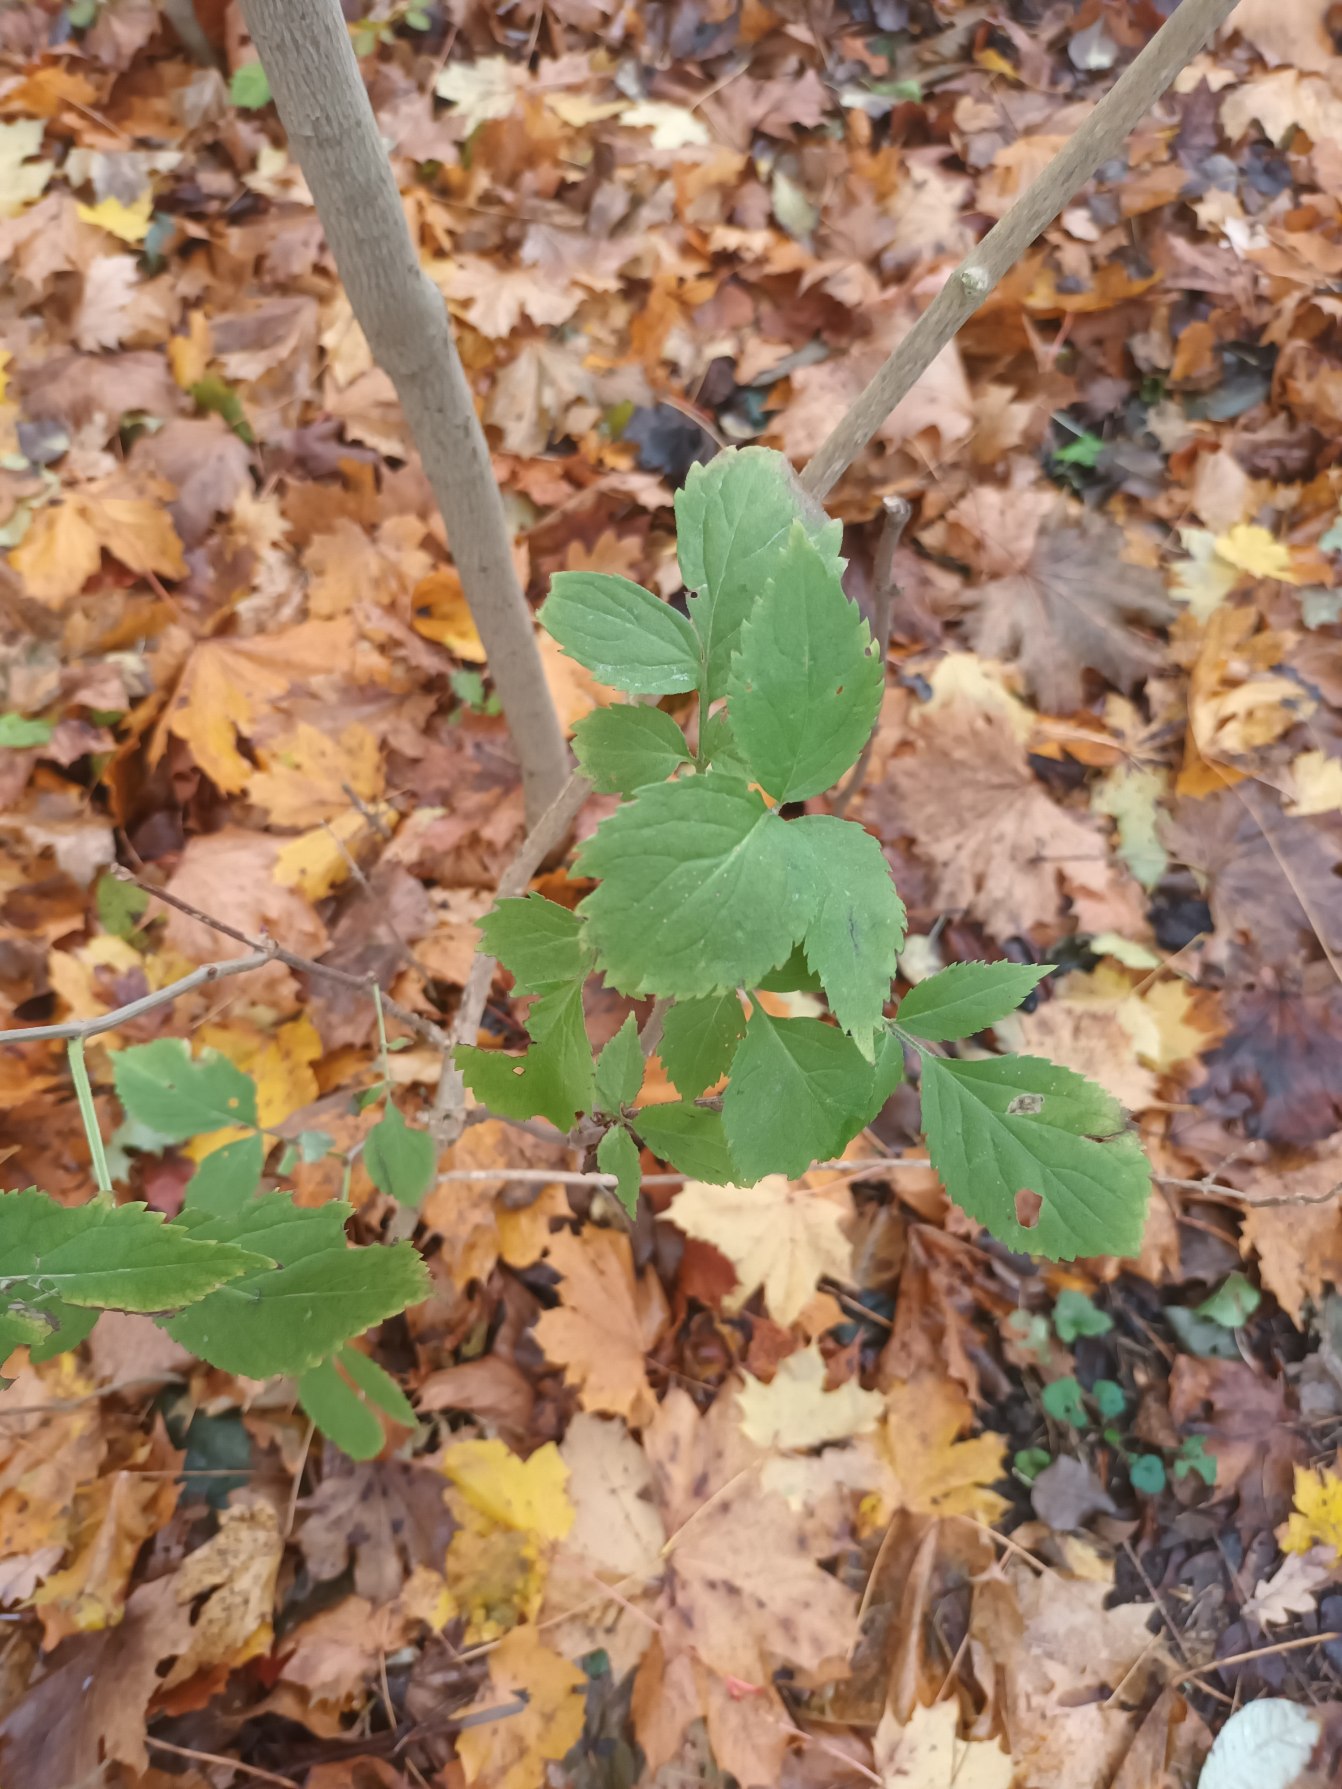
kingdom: Plantae
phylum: Tracheophyta
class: Magnoliopsida
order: Dipsacales
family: Viburnaceae
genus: Sambucus
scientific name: Sambucus nigra
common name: Almindelig hyld
